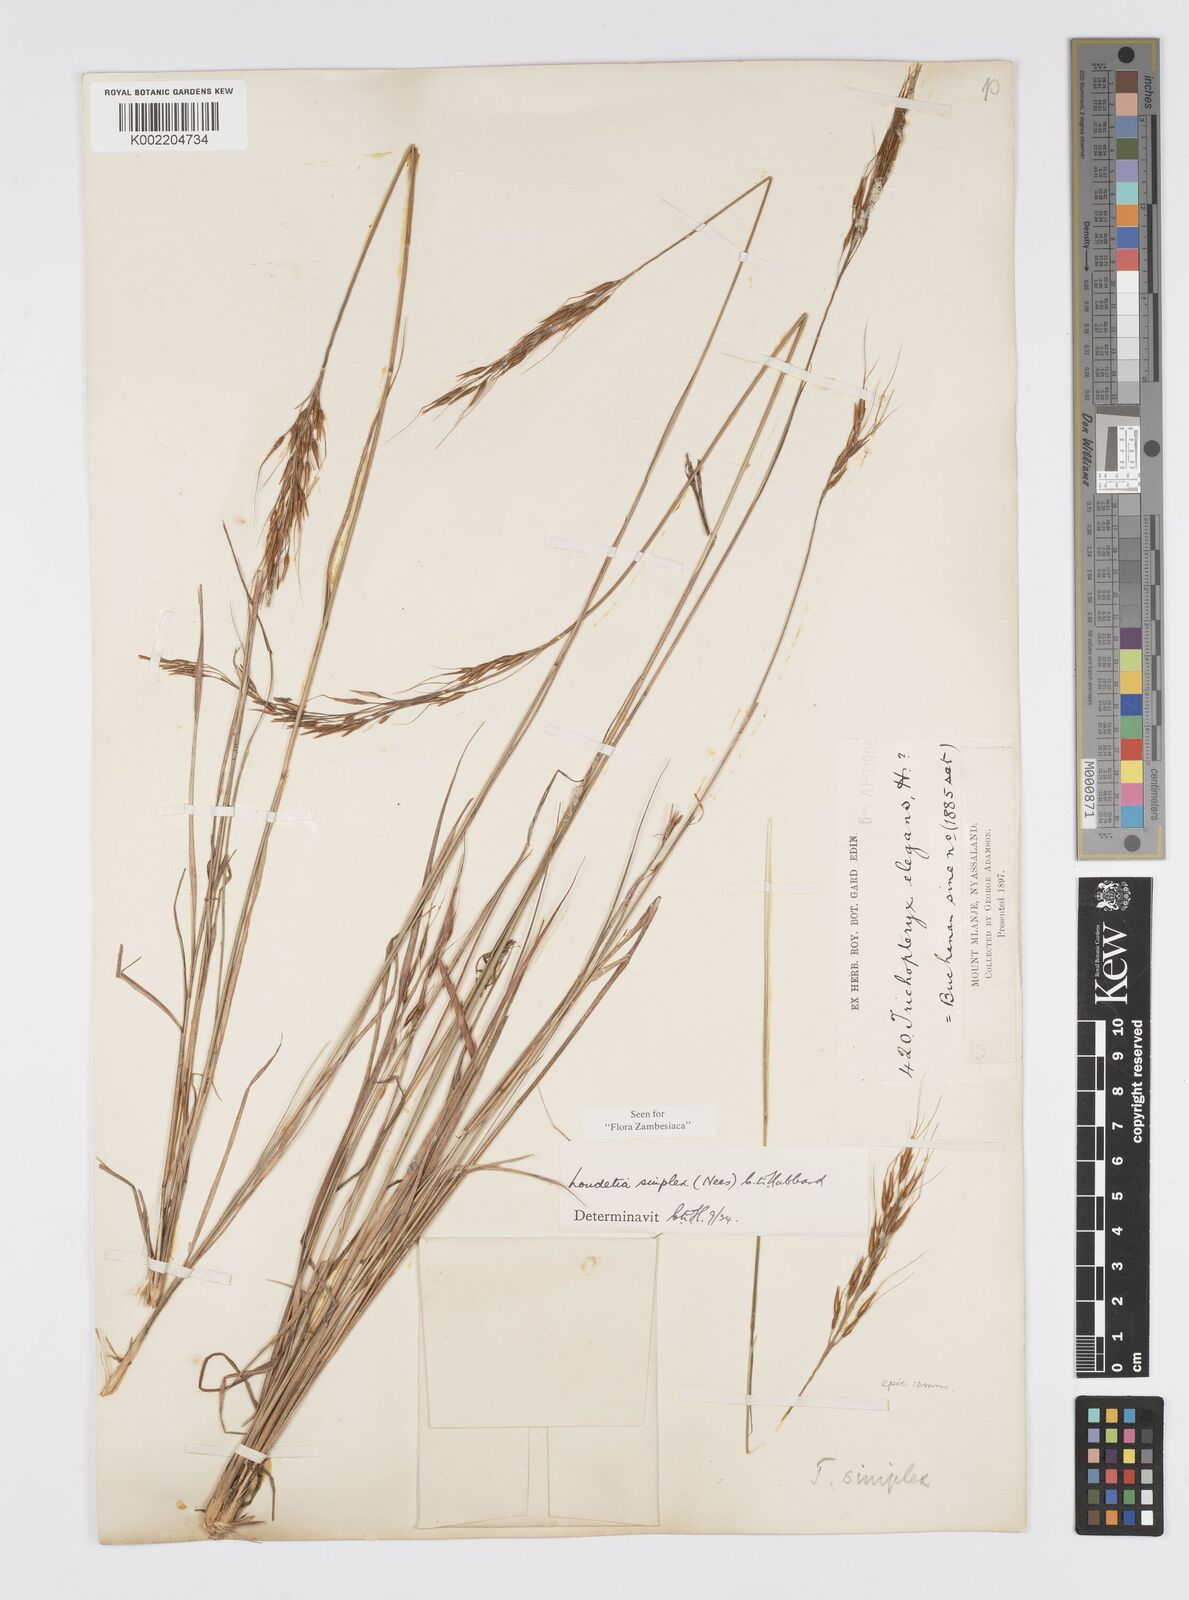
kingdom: Plantae
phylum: Tracheophyta
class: Liliopsida
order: Poales
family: Poaceae
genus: Loudetia
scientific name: Loudetia simplex
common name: Common russet grass
